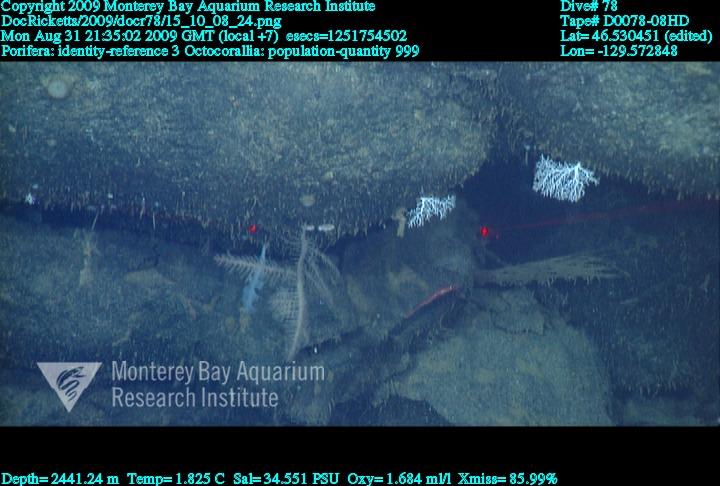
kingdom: Animalia
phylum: Porifera
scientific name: Porifera
